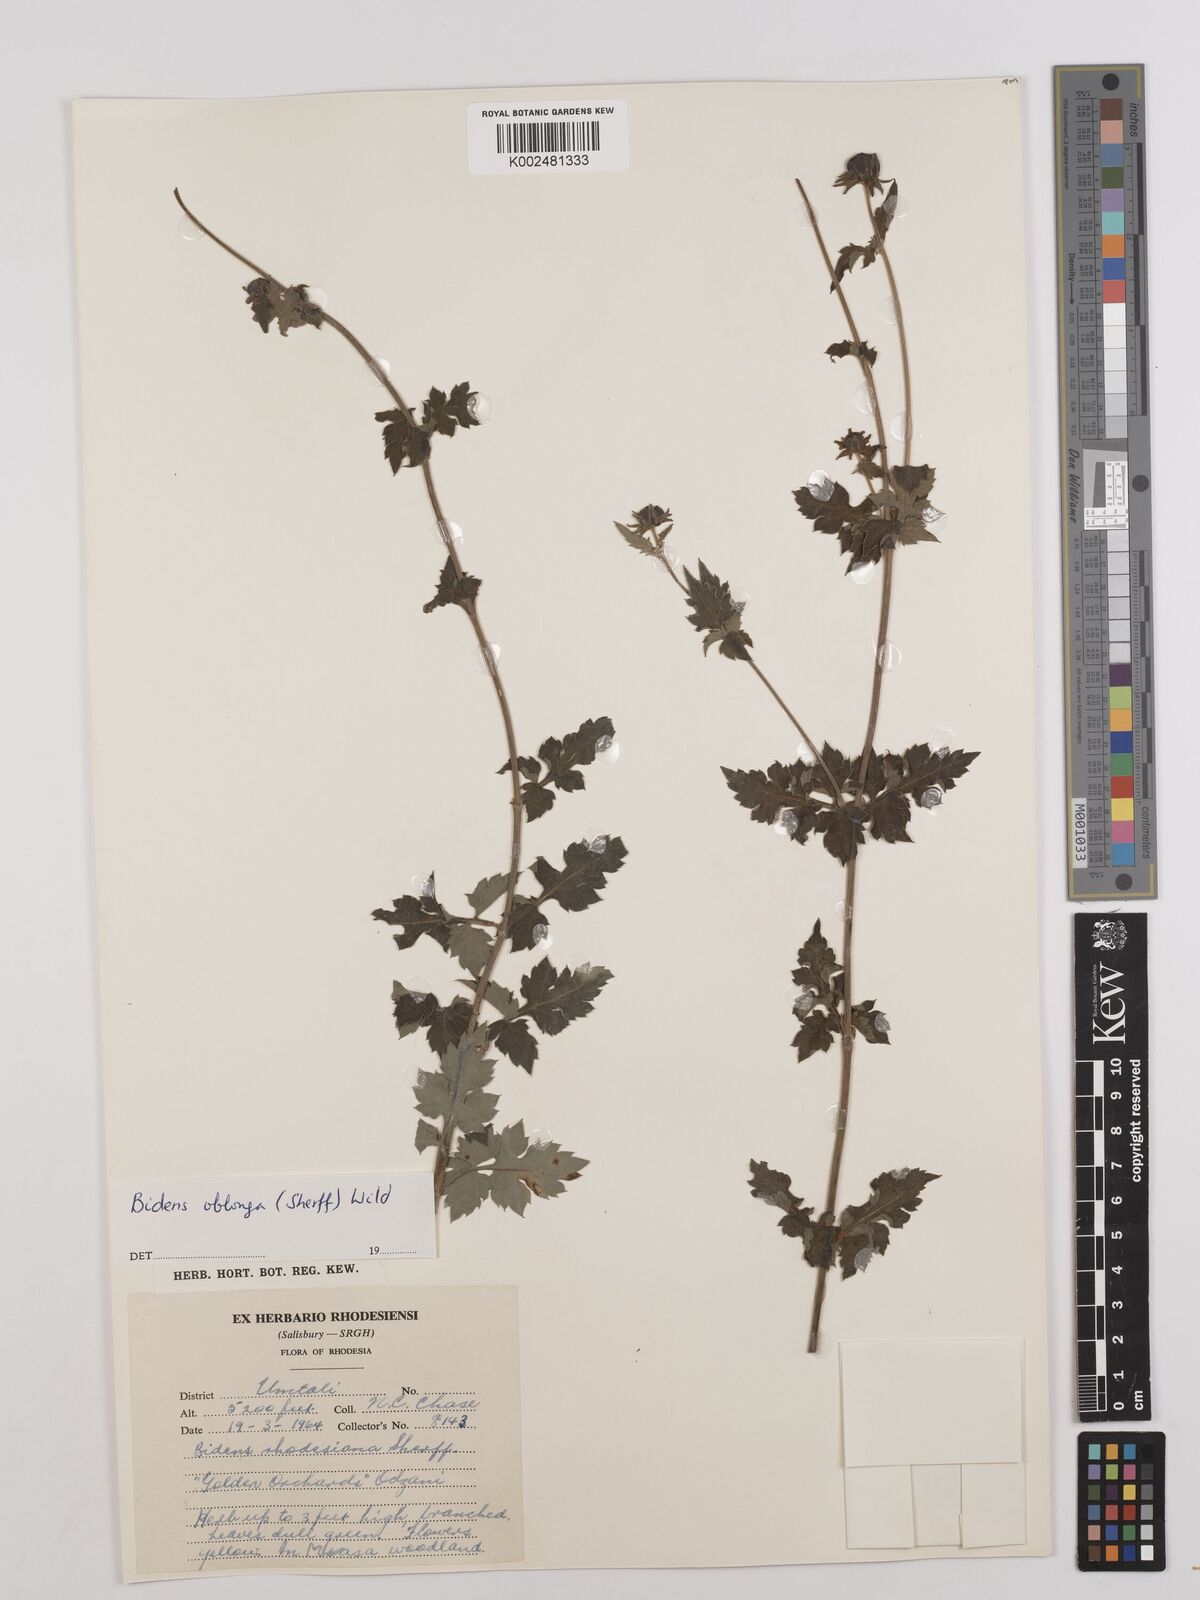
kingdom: Plantae
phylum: Tracheophyta
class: Magnoliopsida
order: Asterales
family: Asteraceae
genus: Bidens
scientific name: Bidens oblonga
